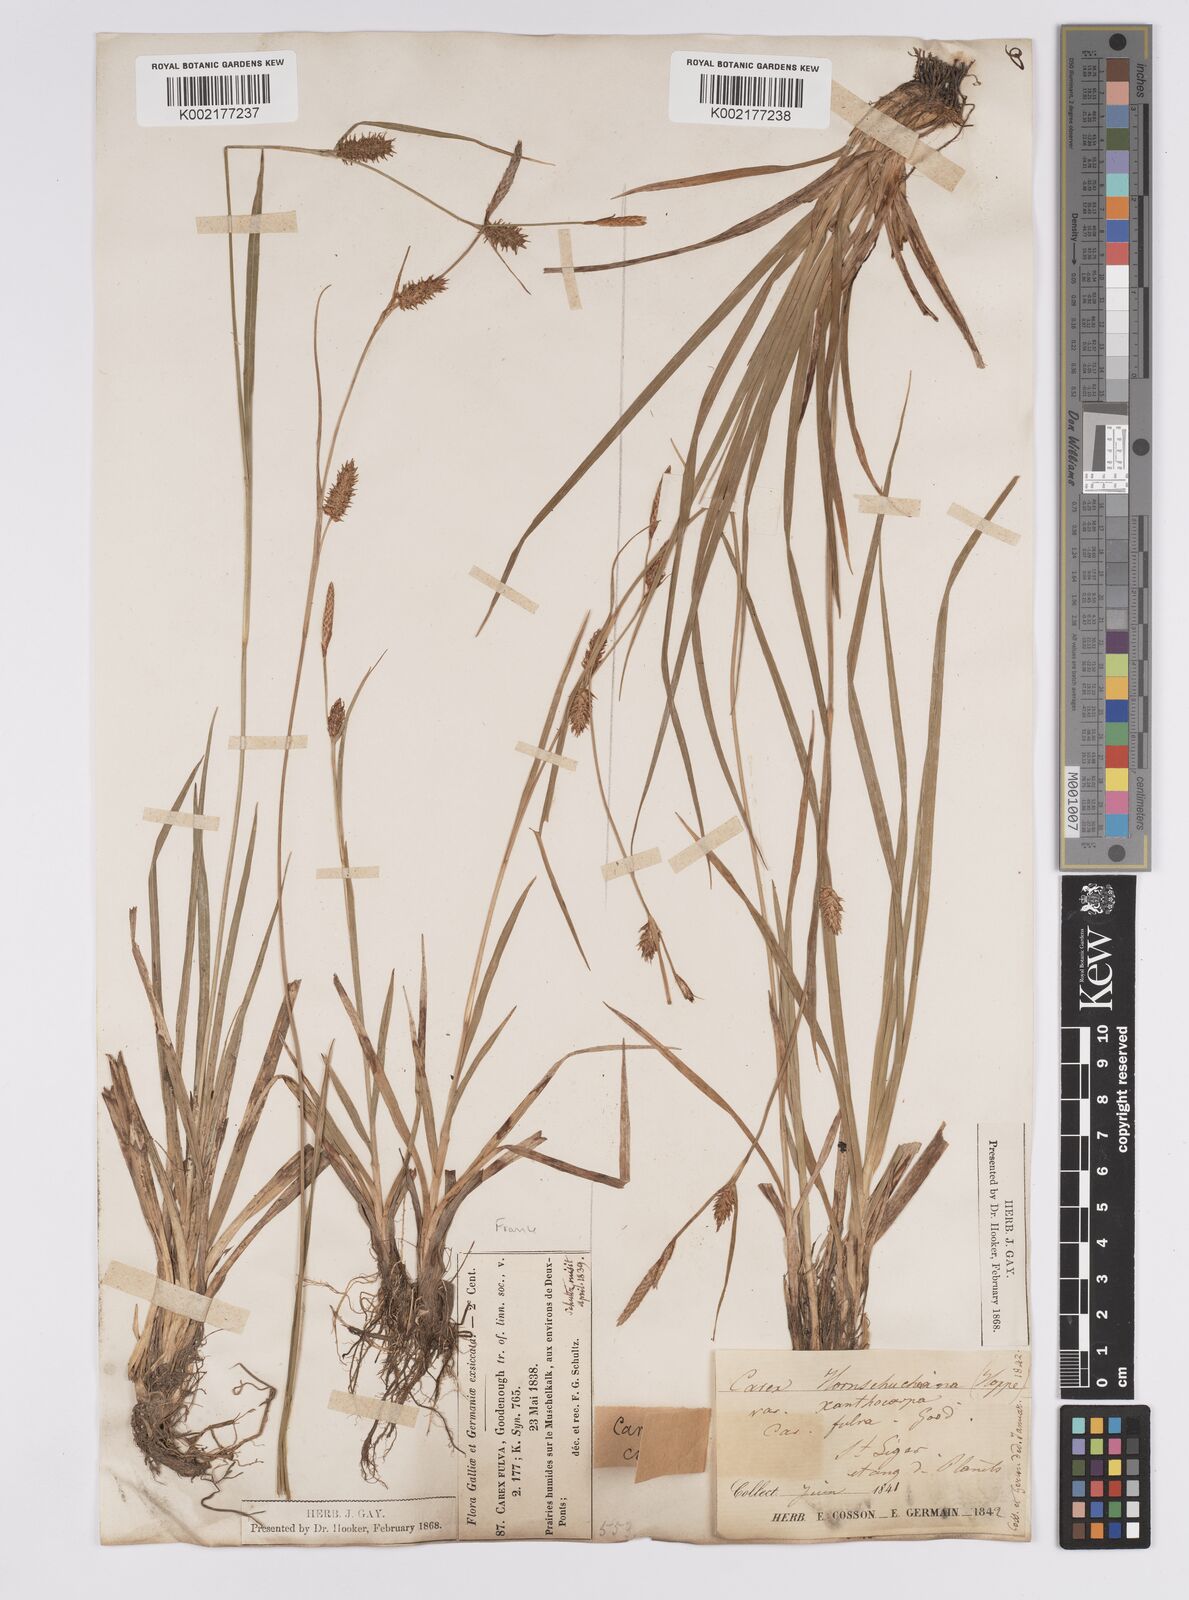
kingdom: Plantae
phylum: Tracheophyta
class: Liliopsida
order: Poales
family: Cyperaceae
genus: Carex
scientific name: Carex hostiana
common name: Tawny sedge
